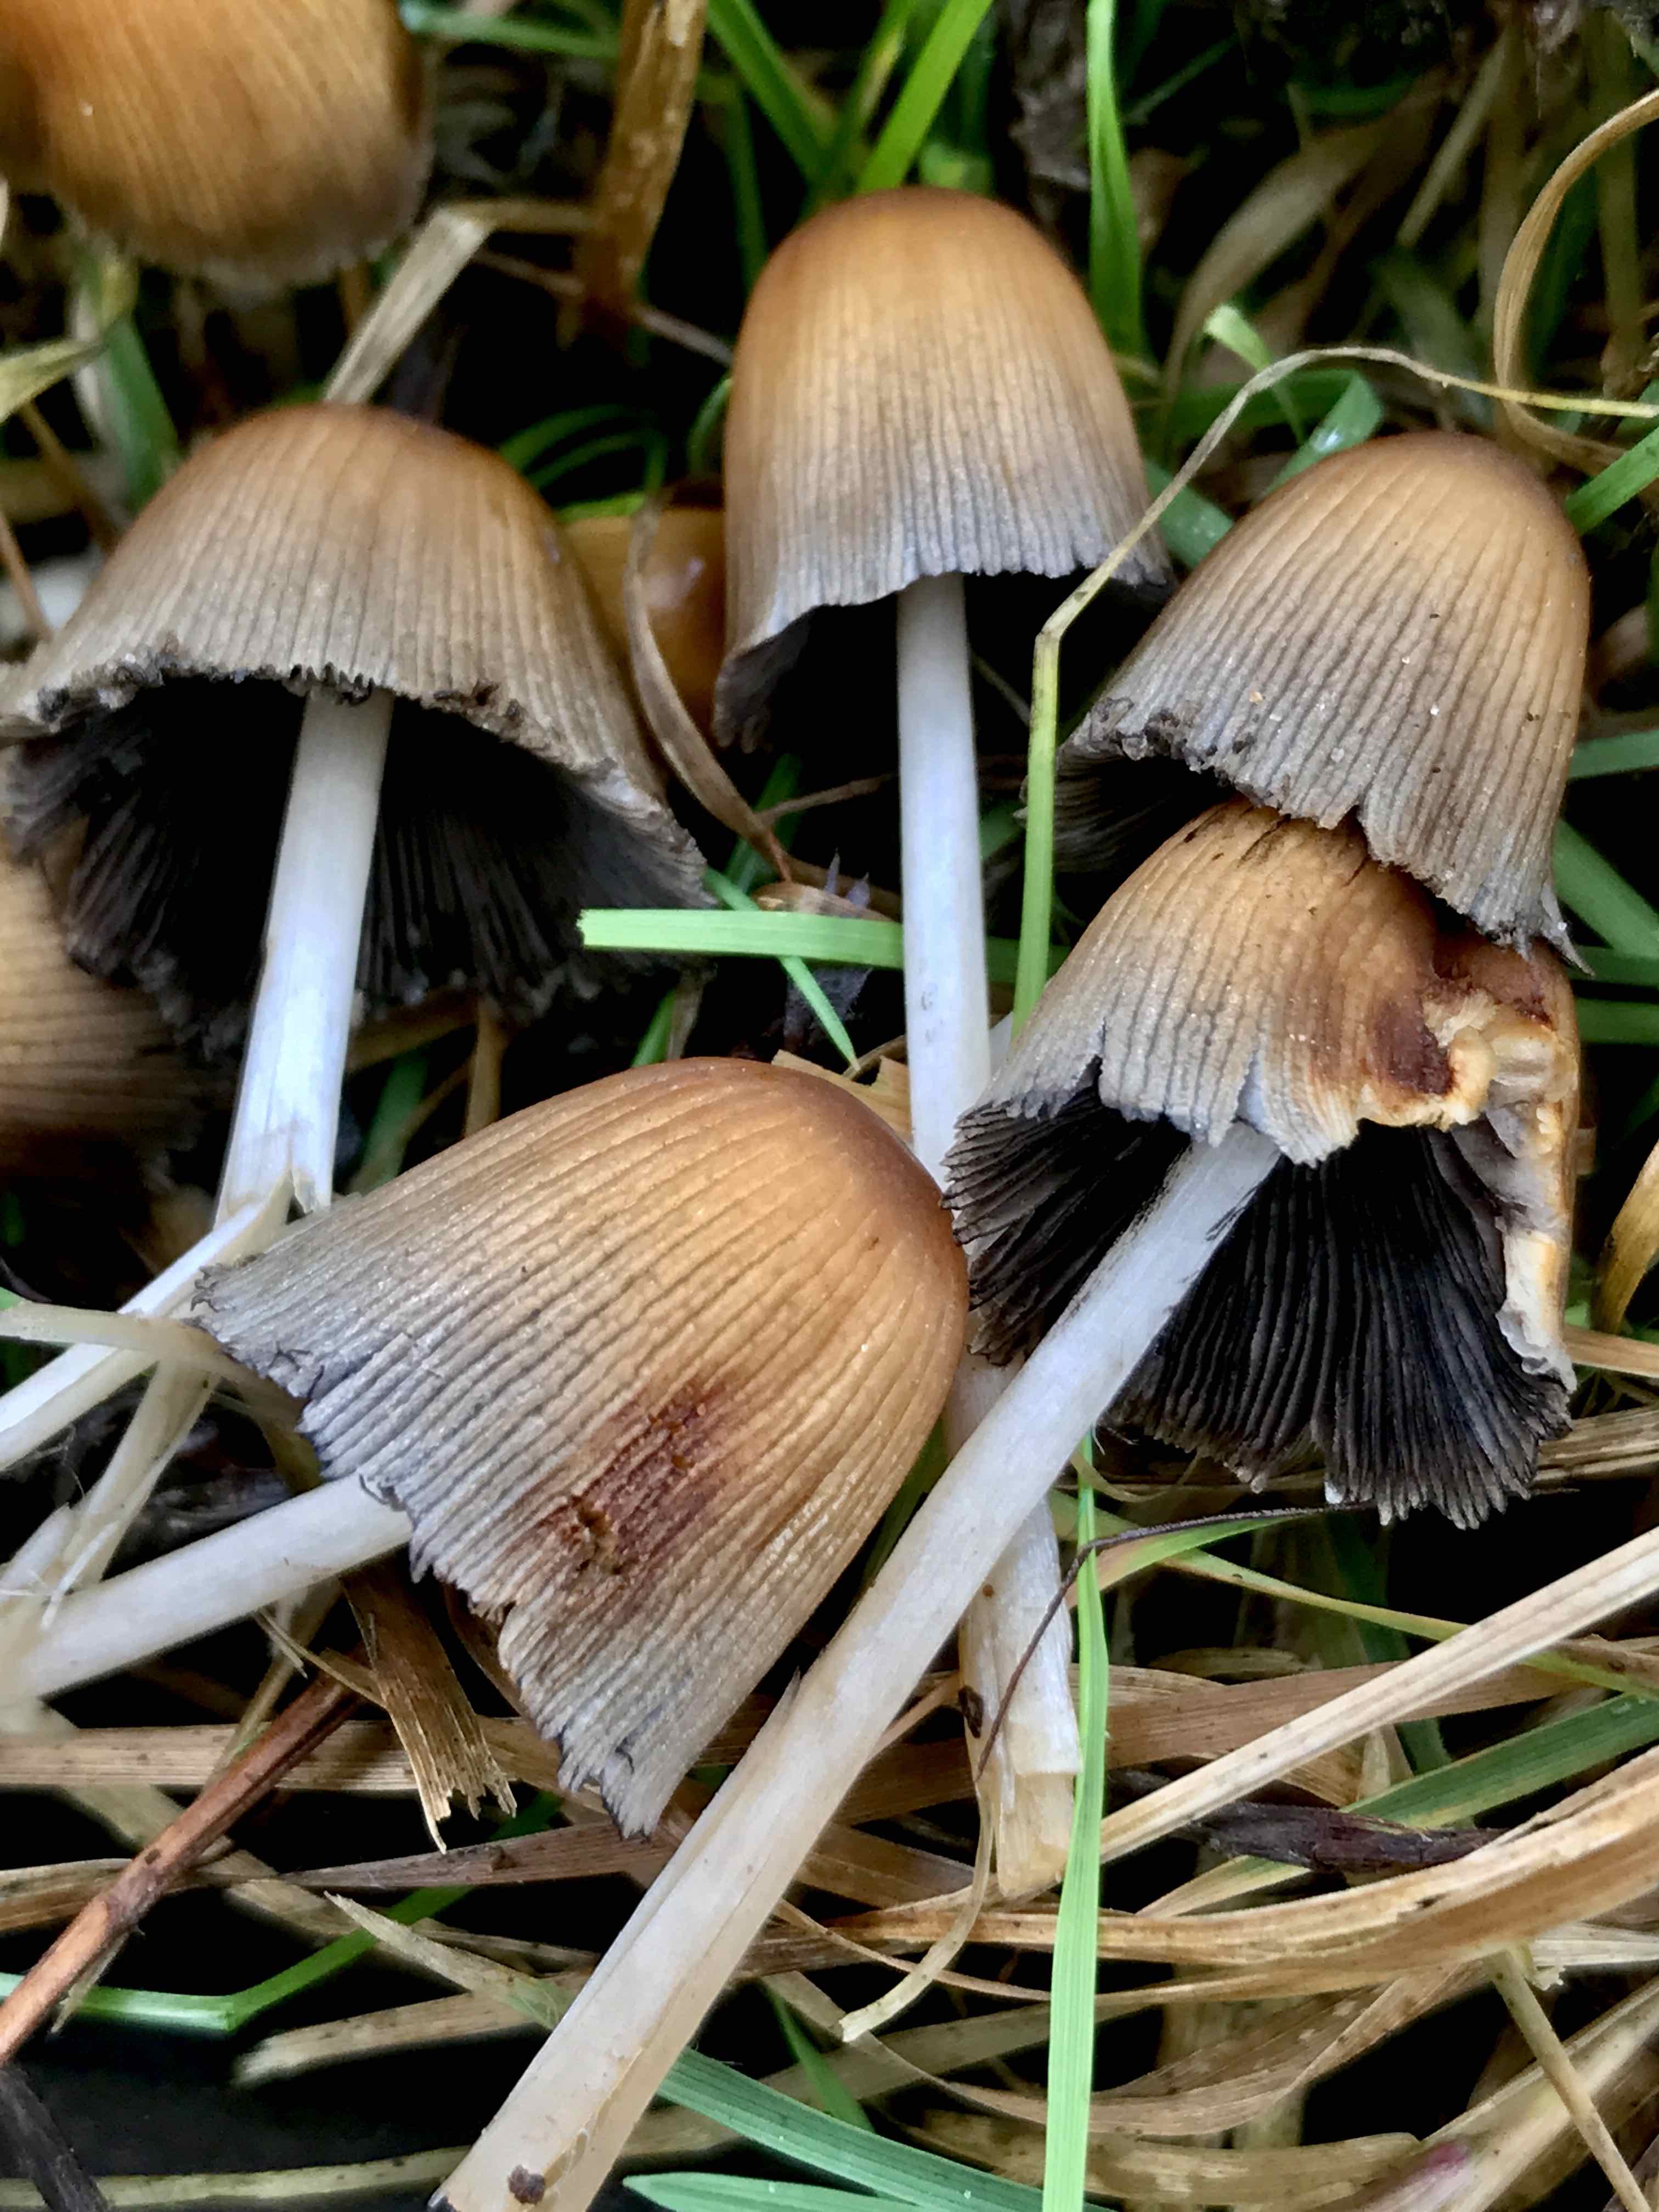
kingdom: Fungi
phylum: Basidiomycota
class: Agaricomycetes
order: Agaricales
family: Psathyrellaceae
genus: Coprinellus
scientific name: Coprinellus micaceus
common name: glimmer-blækhat
